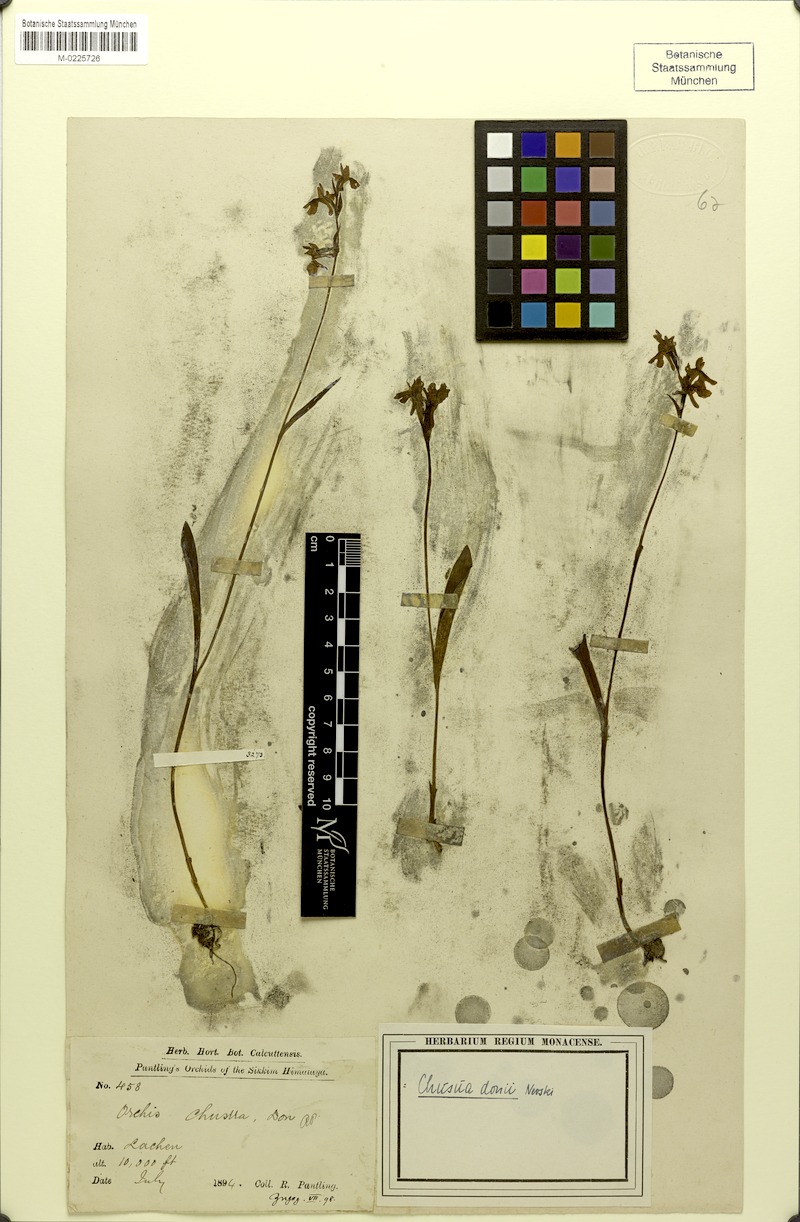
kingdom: Plantae
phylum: Tracheophyta
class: Liliopsida
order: Asparagales
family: Orchidaceae
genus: Hemipilia
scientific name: Hemipilia chusua
